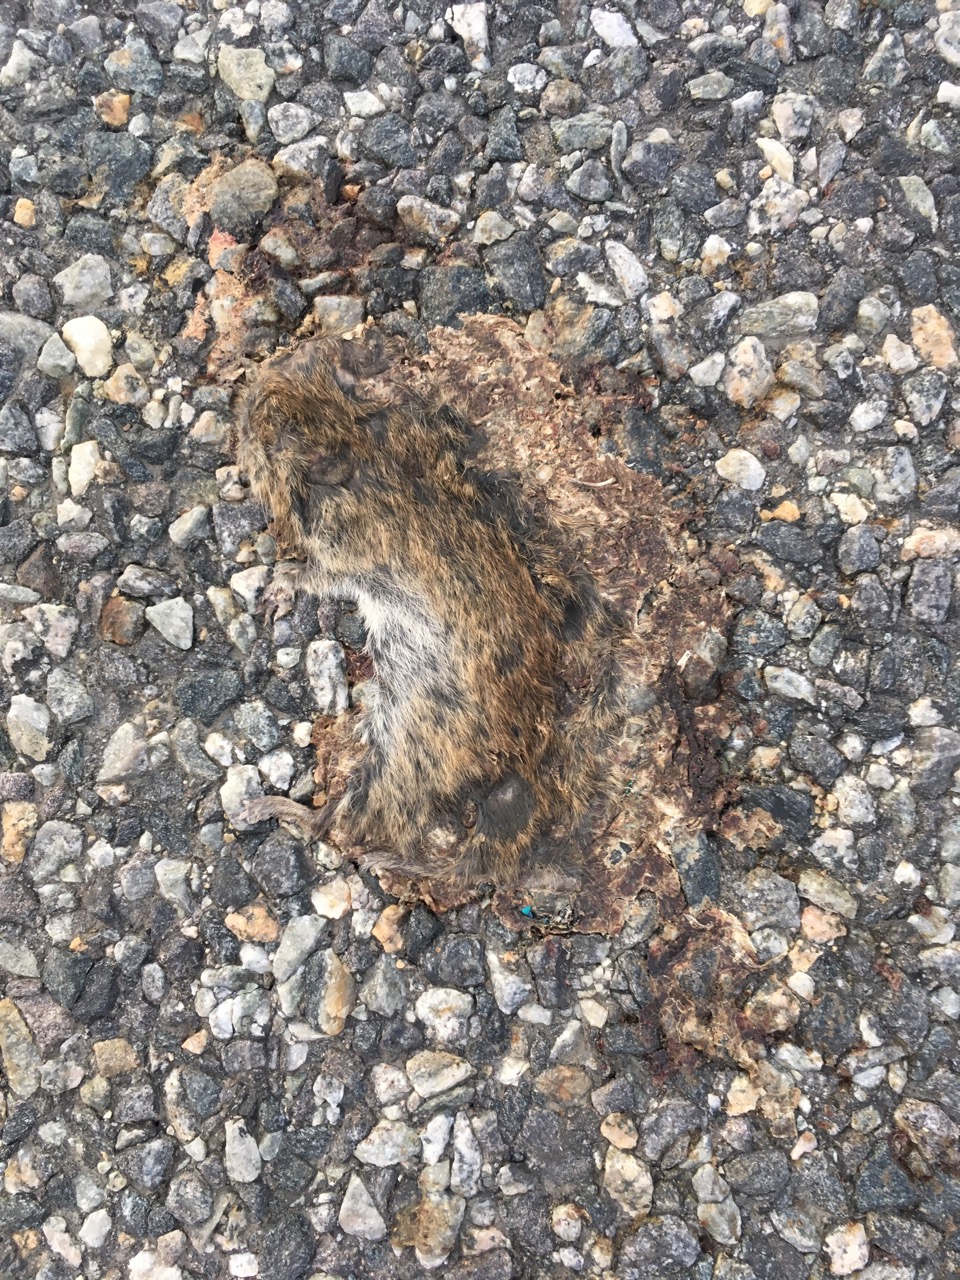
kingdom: Animalia
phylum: Chordata
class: Mammalia
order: Rodentia
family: Cricetidae
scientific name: Cricetidae
